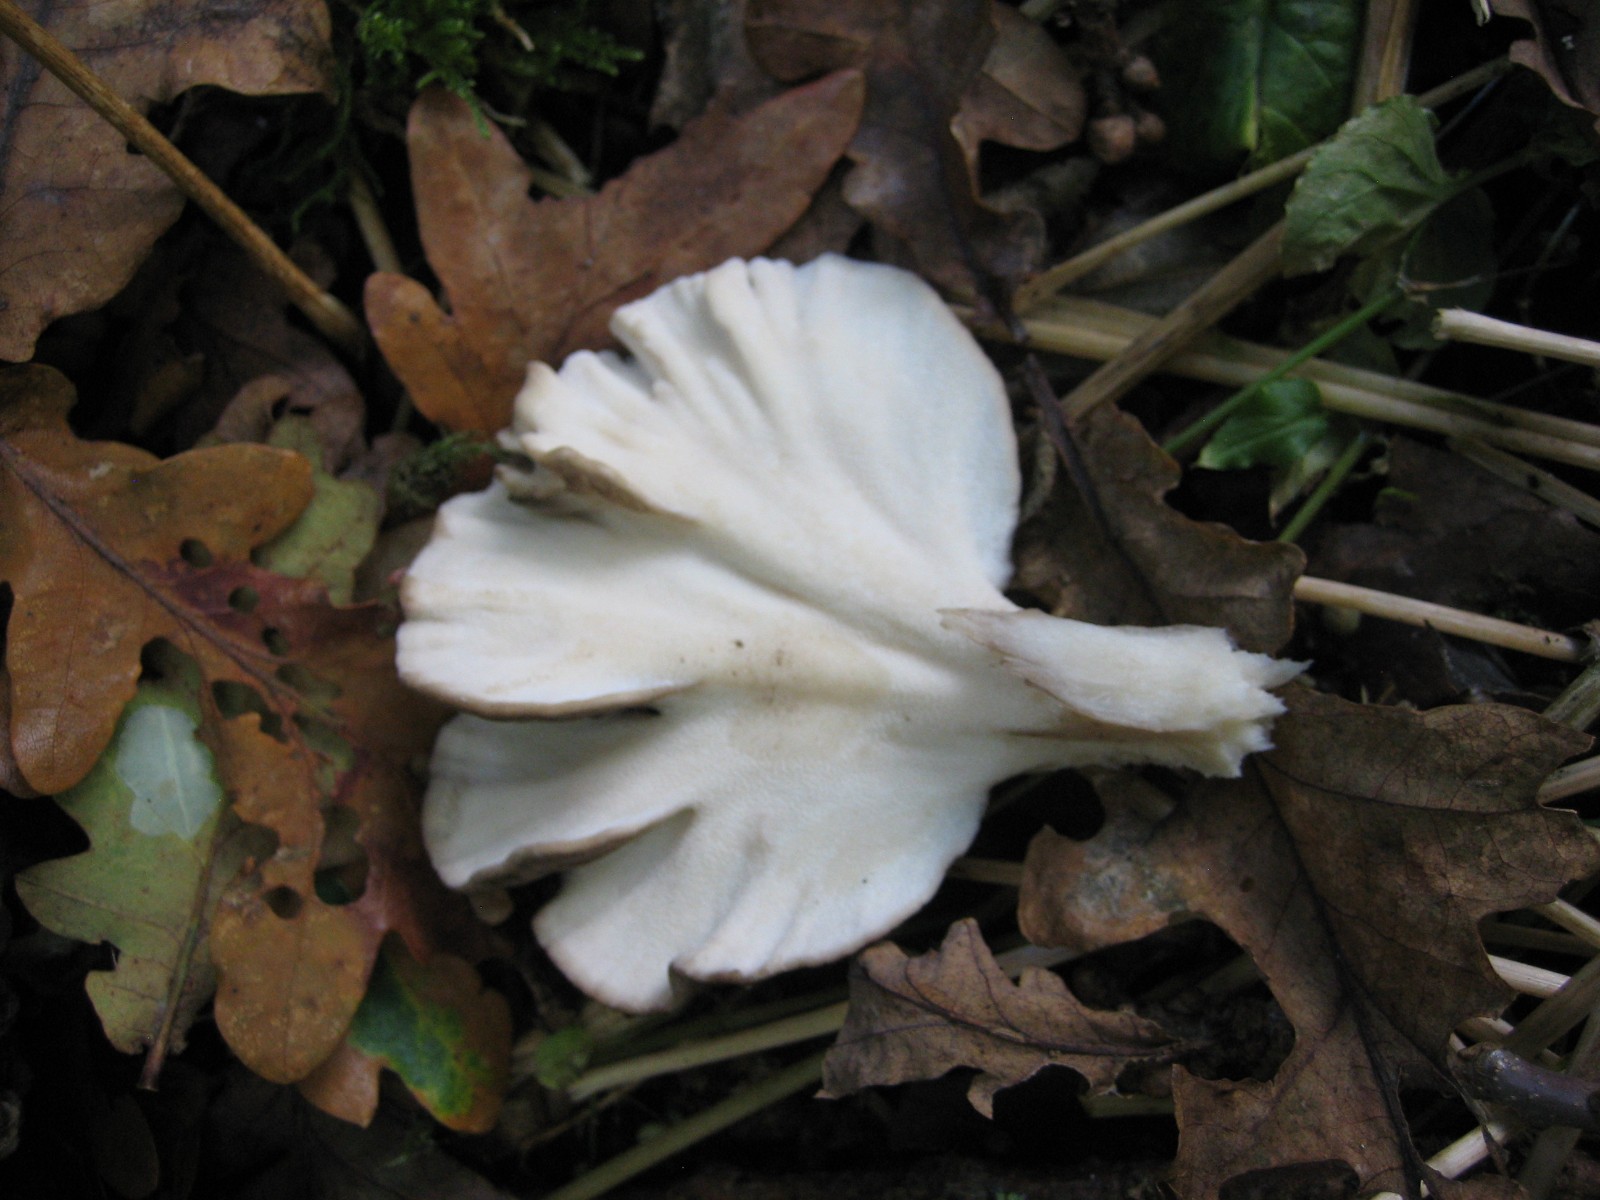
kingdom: Fungi
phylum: Basidiomycota
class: Agaricomycetes
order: Polyporales
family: Grifolaceae
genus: Grifola
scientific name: Grifola frondosa
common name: tueporesvamp
